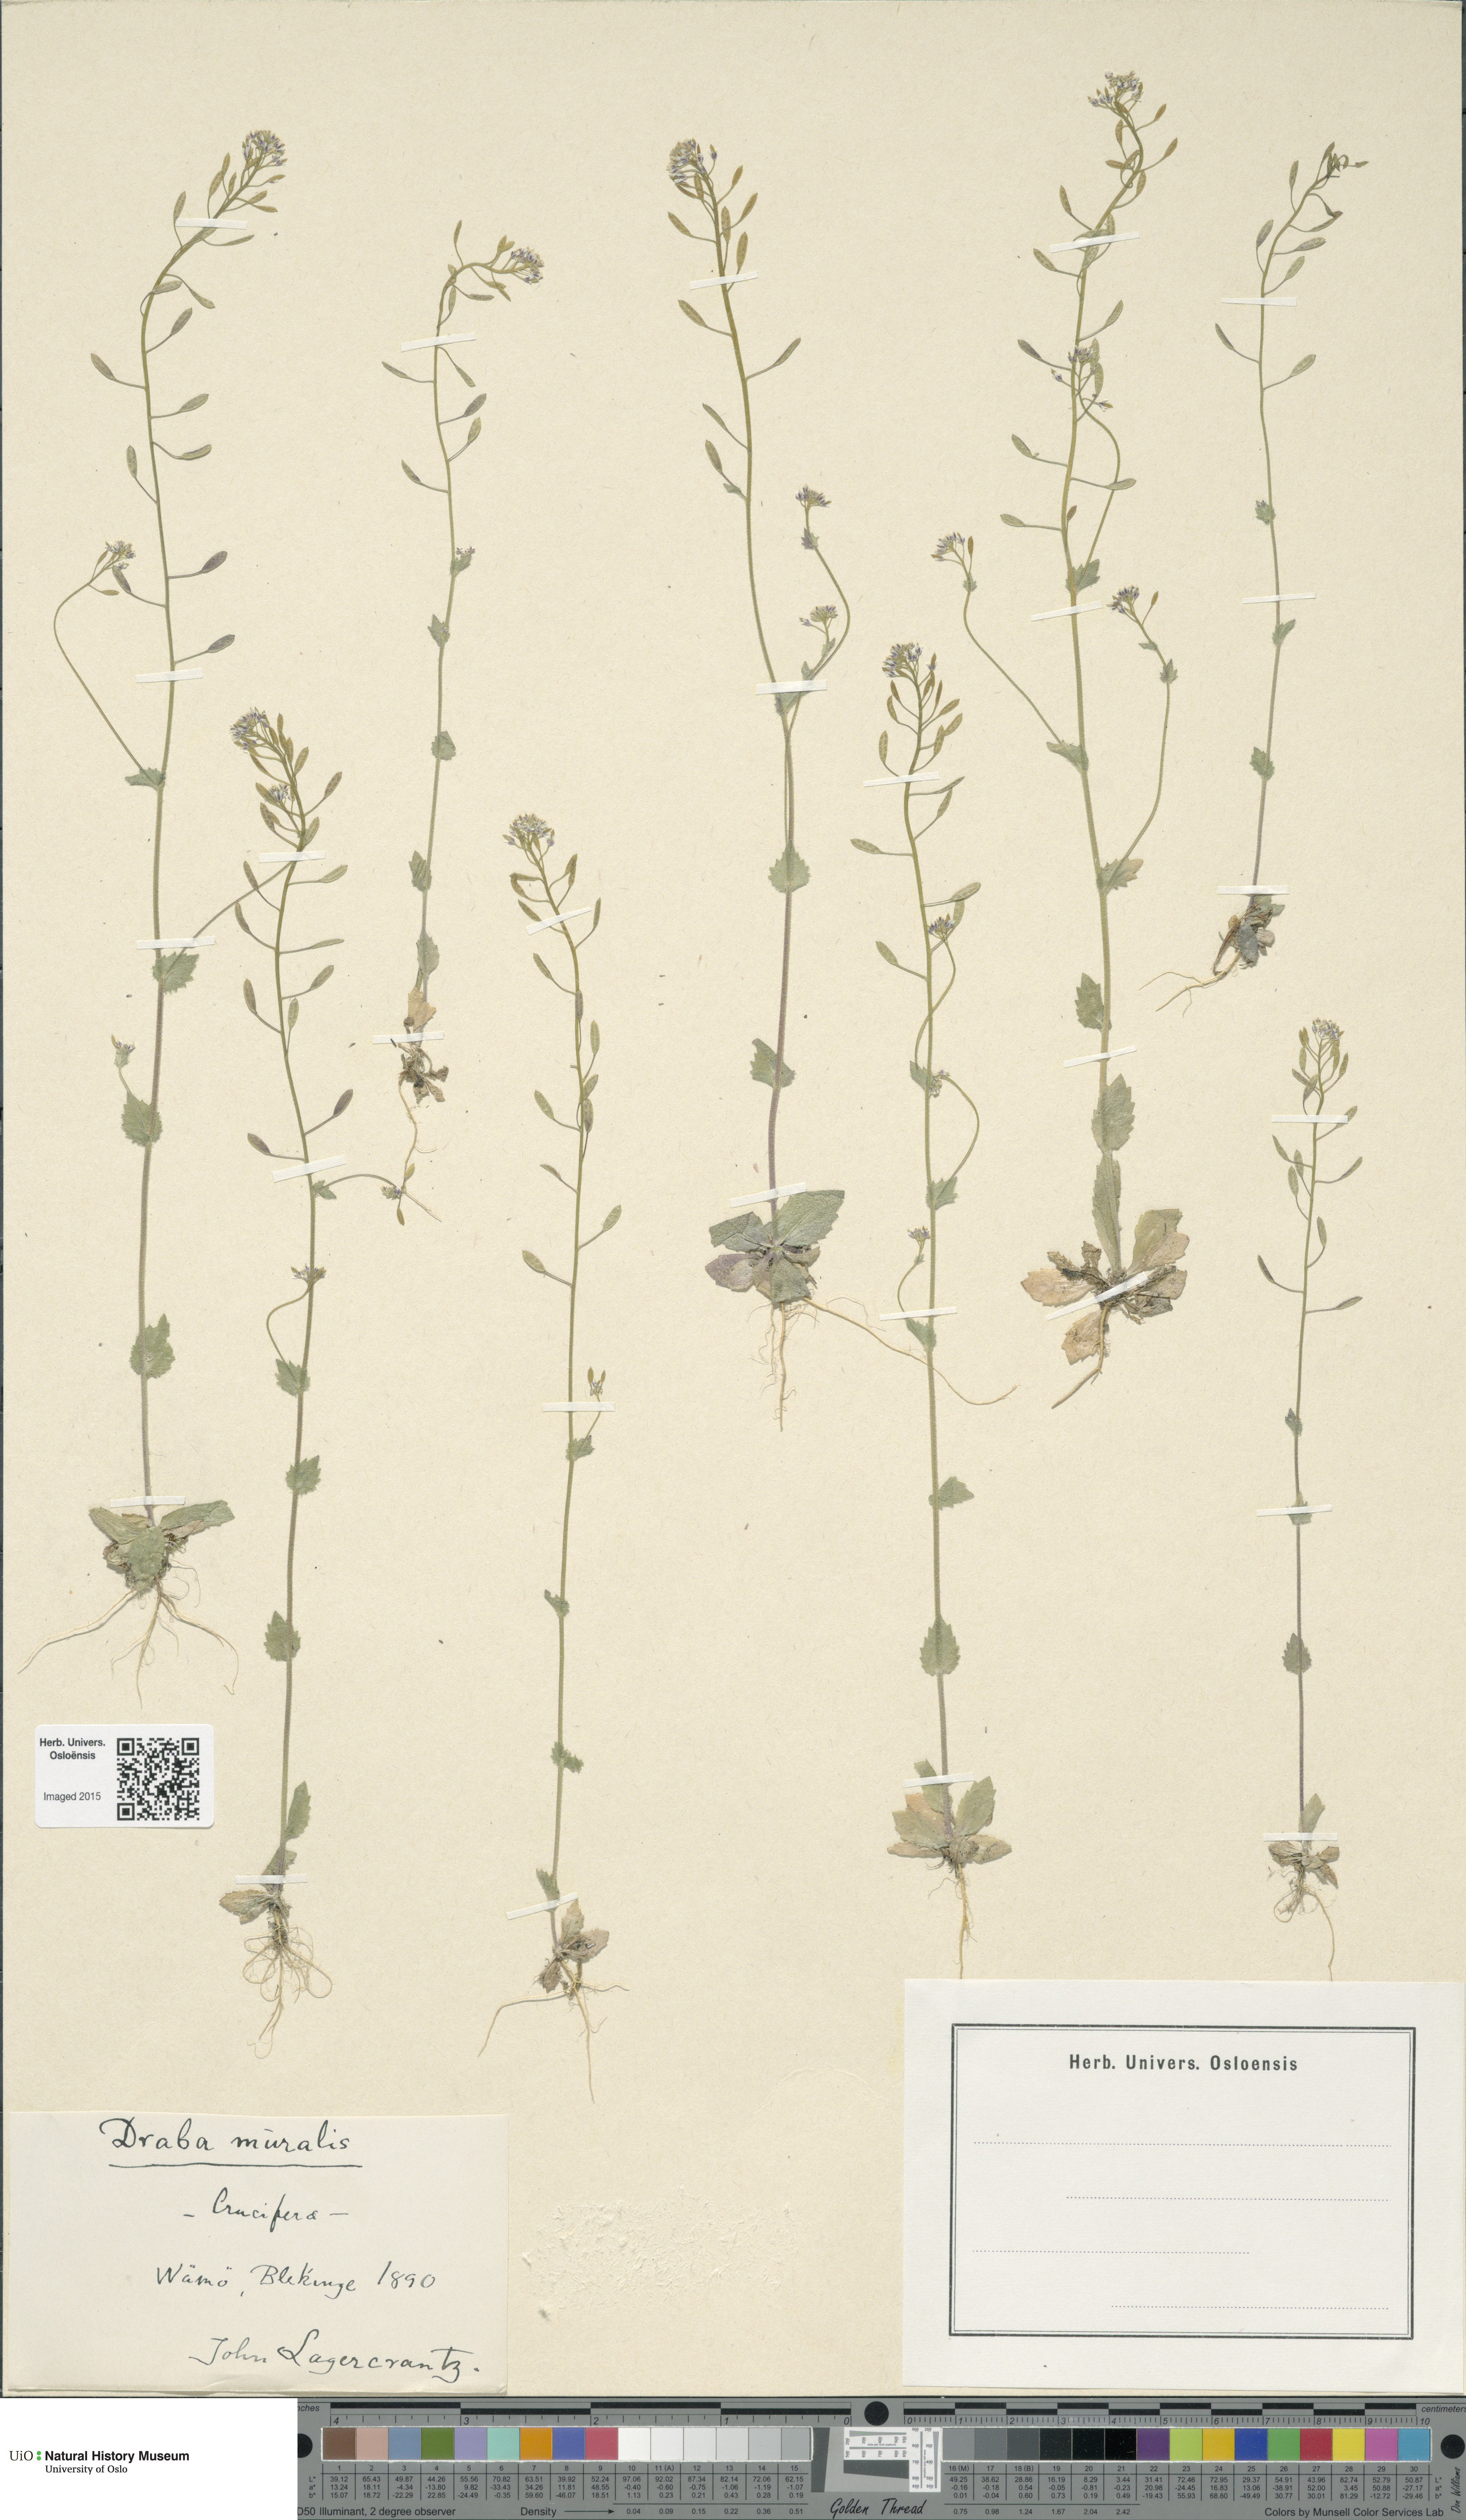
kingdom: Plantae
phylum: Tracheophyta
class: Magnoliopsida
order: Brassicales
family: Brassicaceae
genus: Drabella
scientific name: Drabella muralis
